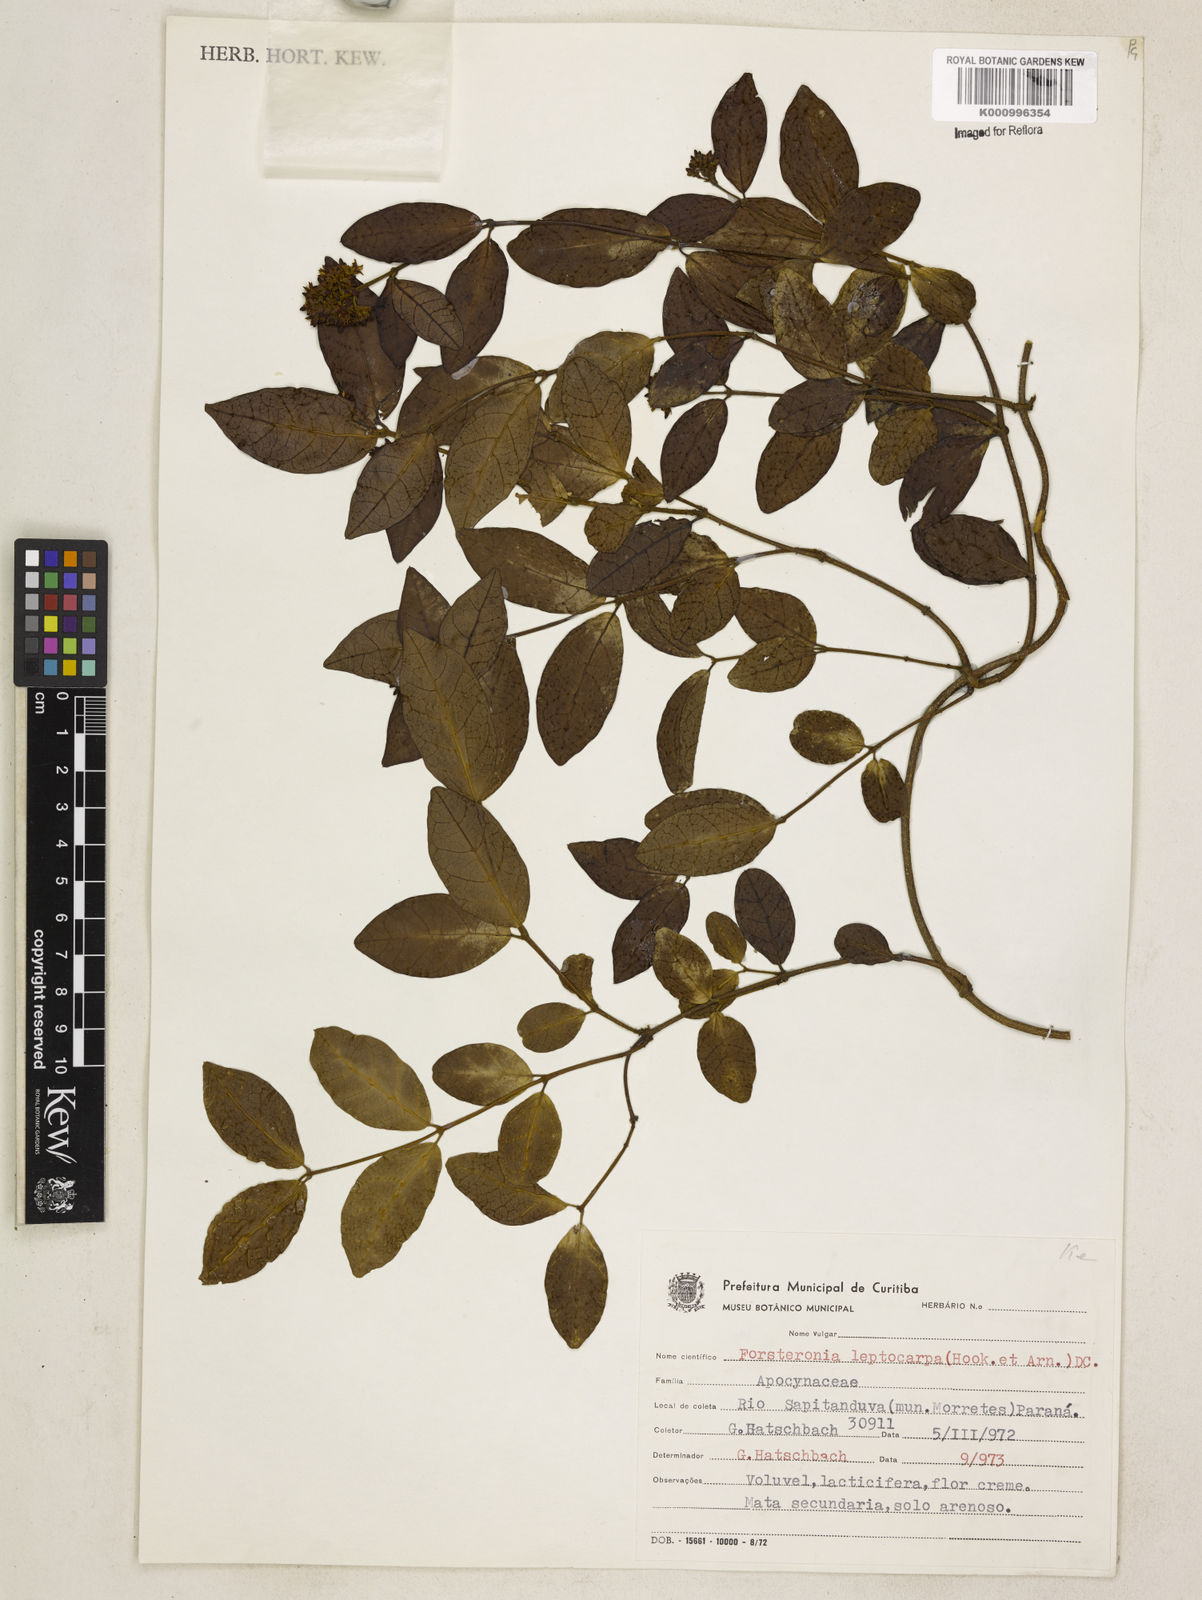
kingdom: Plantae
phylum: Tracheophyta
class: Magnoliopsida
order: Gentianales
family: Apocynaceae
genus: Forsteronia
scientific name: Forsteronia leptocarpa
